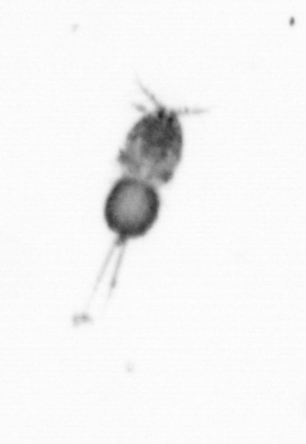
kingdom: Animalia
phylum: Arthropoda
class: Copepoda
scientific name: Copepoda
